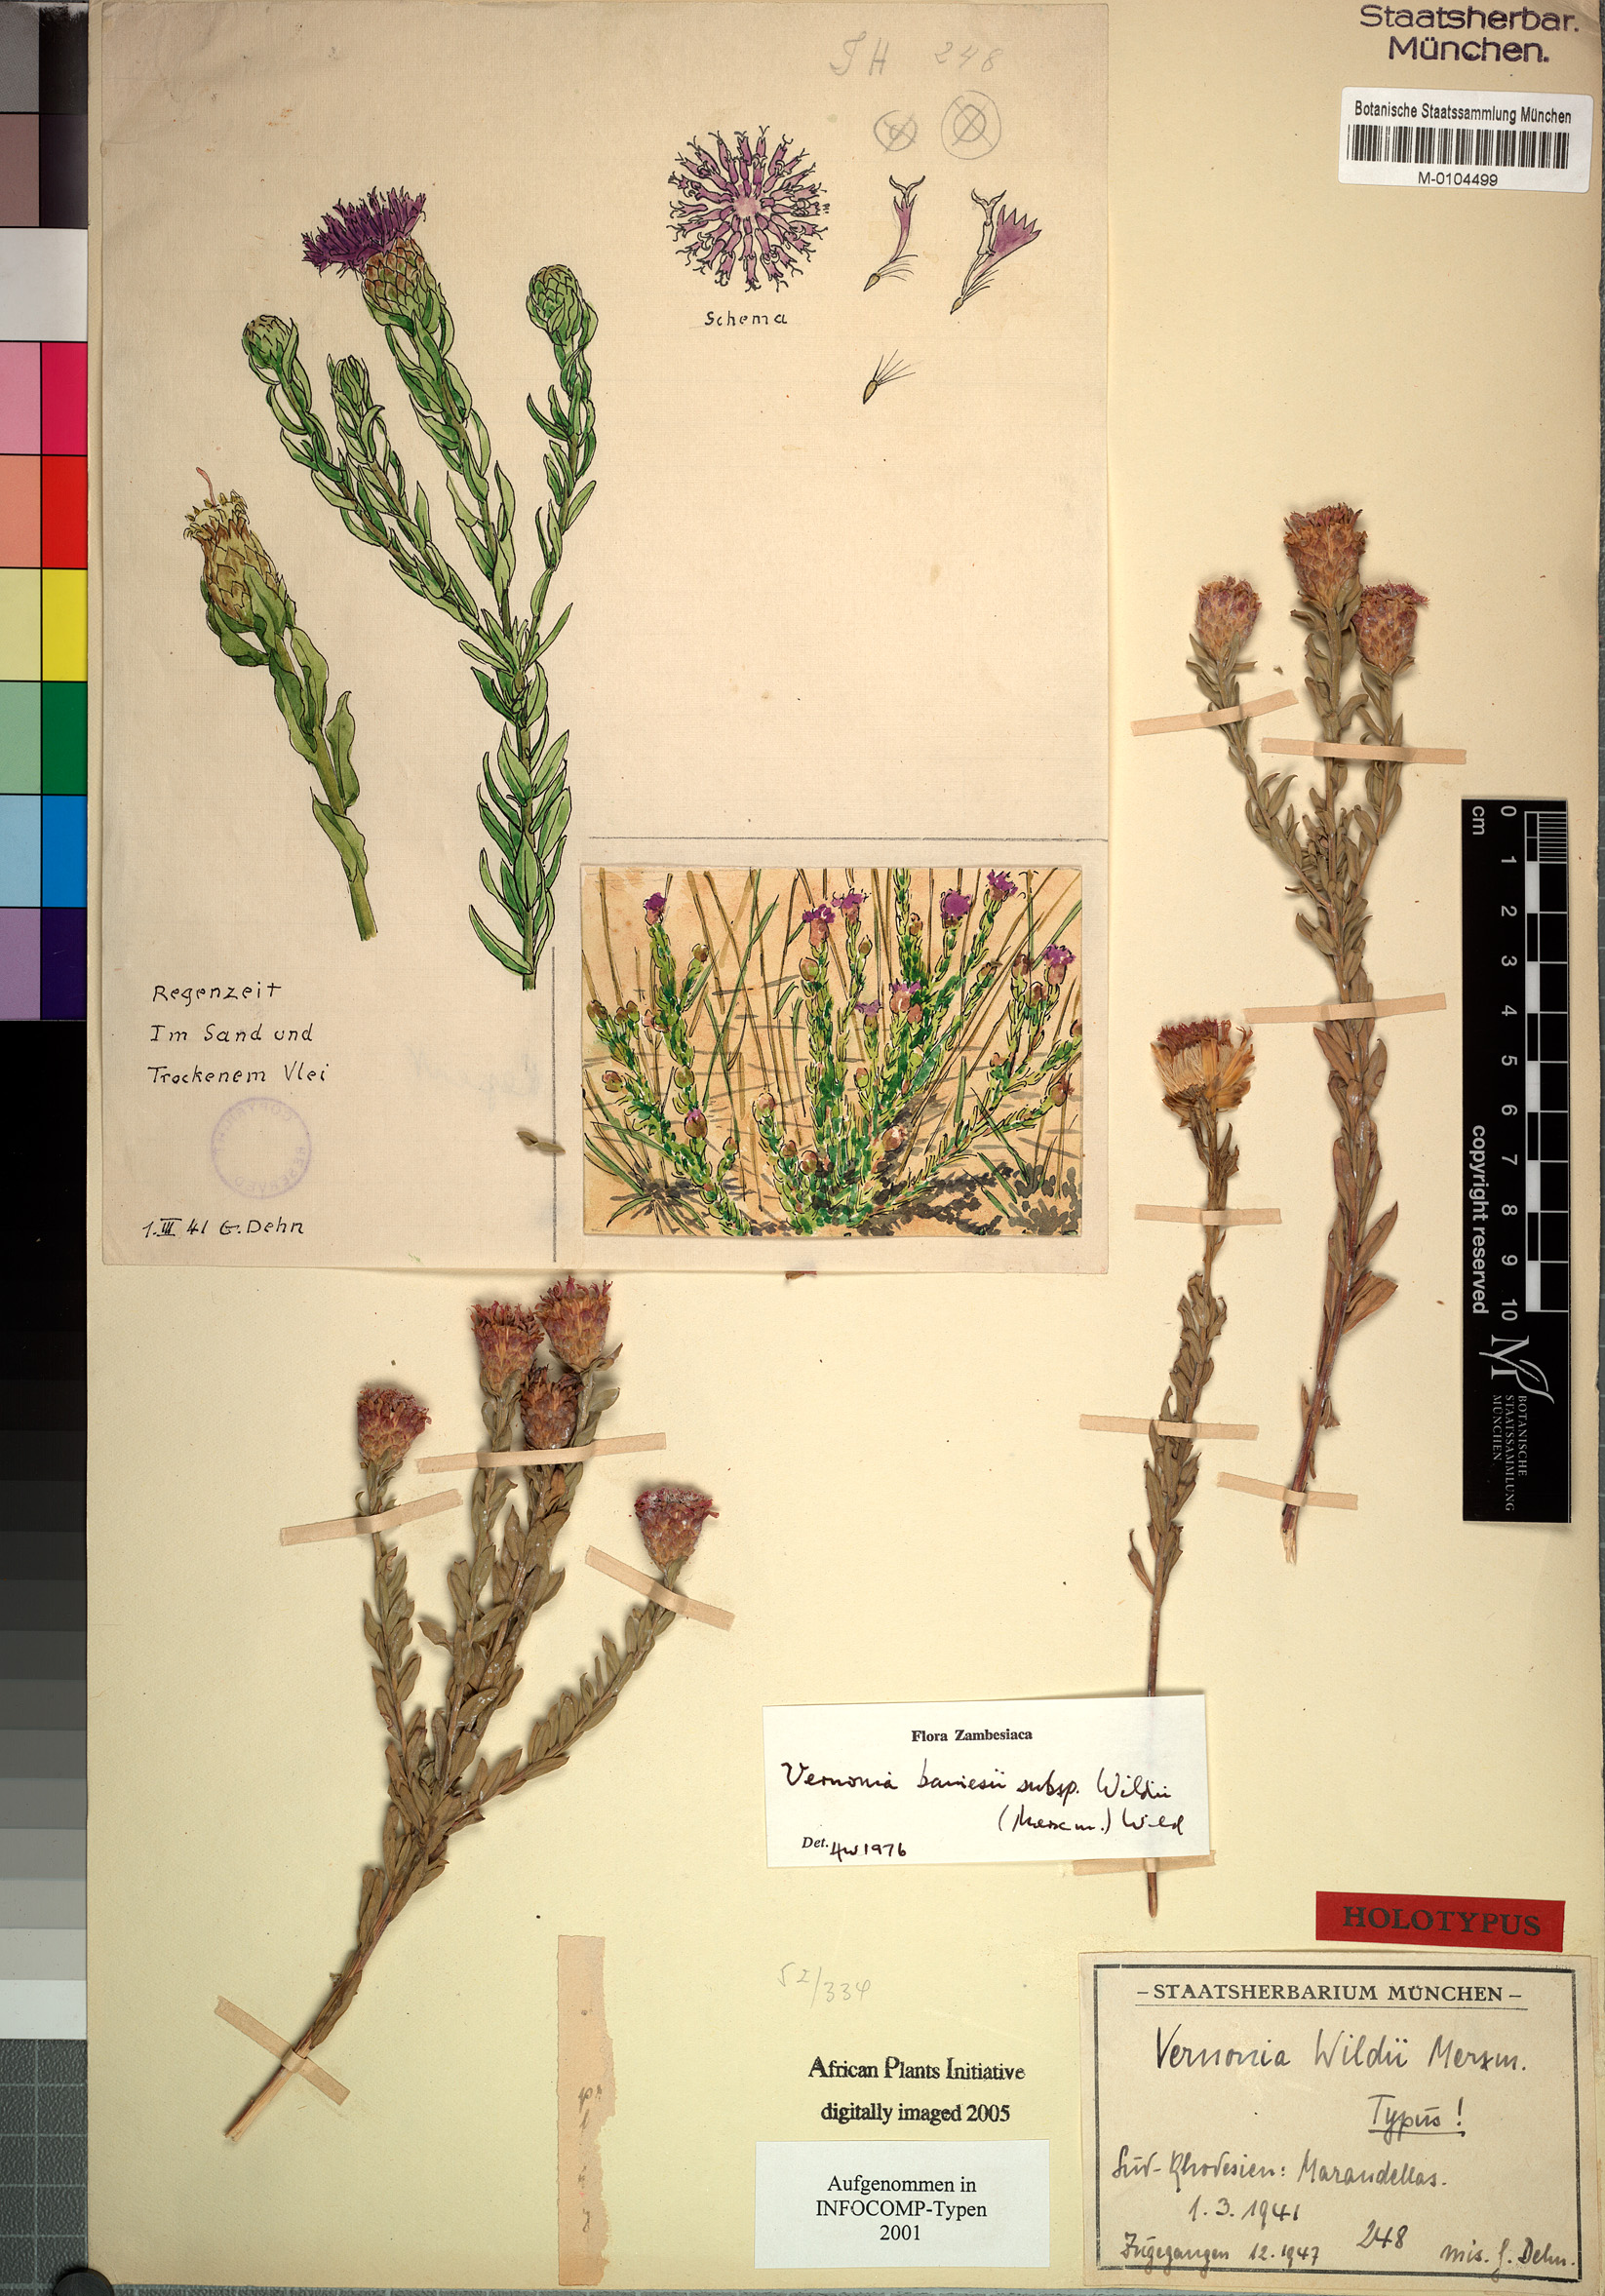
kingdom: Plantae
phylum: Tracheophyta
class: Magnoliopsida
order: Asterales
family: Asteraceae
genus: Crystallopollen
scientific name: Crystallopollen bainesii
